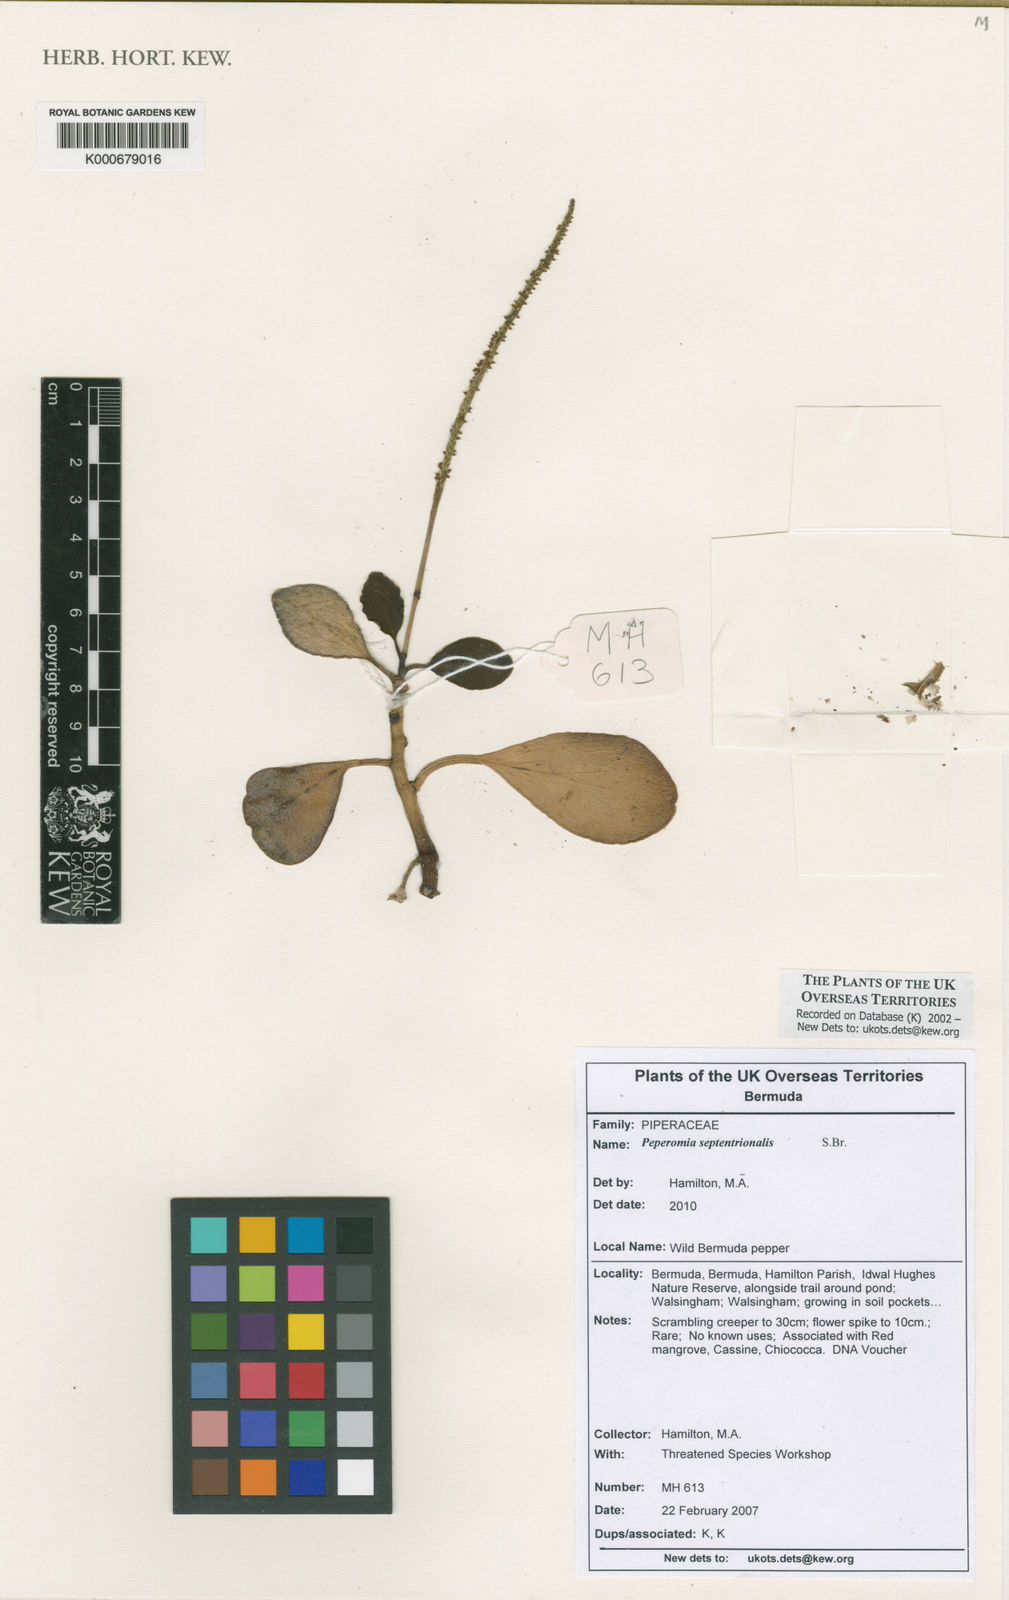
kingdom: Plantae
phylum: Tracheophyta
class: Magnoliopsida
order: Piperales
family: Piperaceae
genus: Peperomia
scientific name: Peperomia septentrionalis
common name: Wild bermuda pepper
